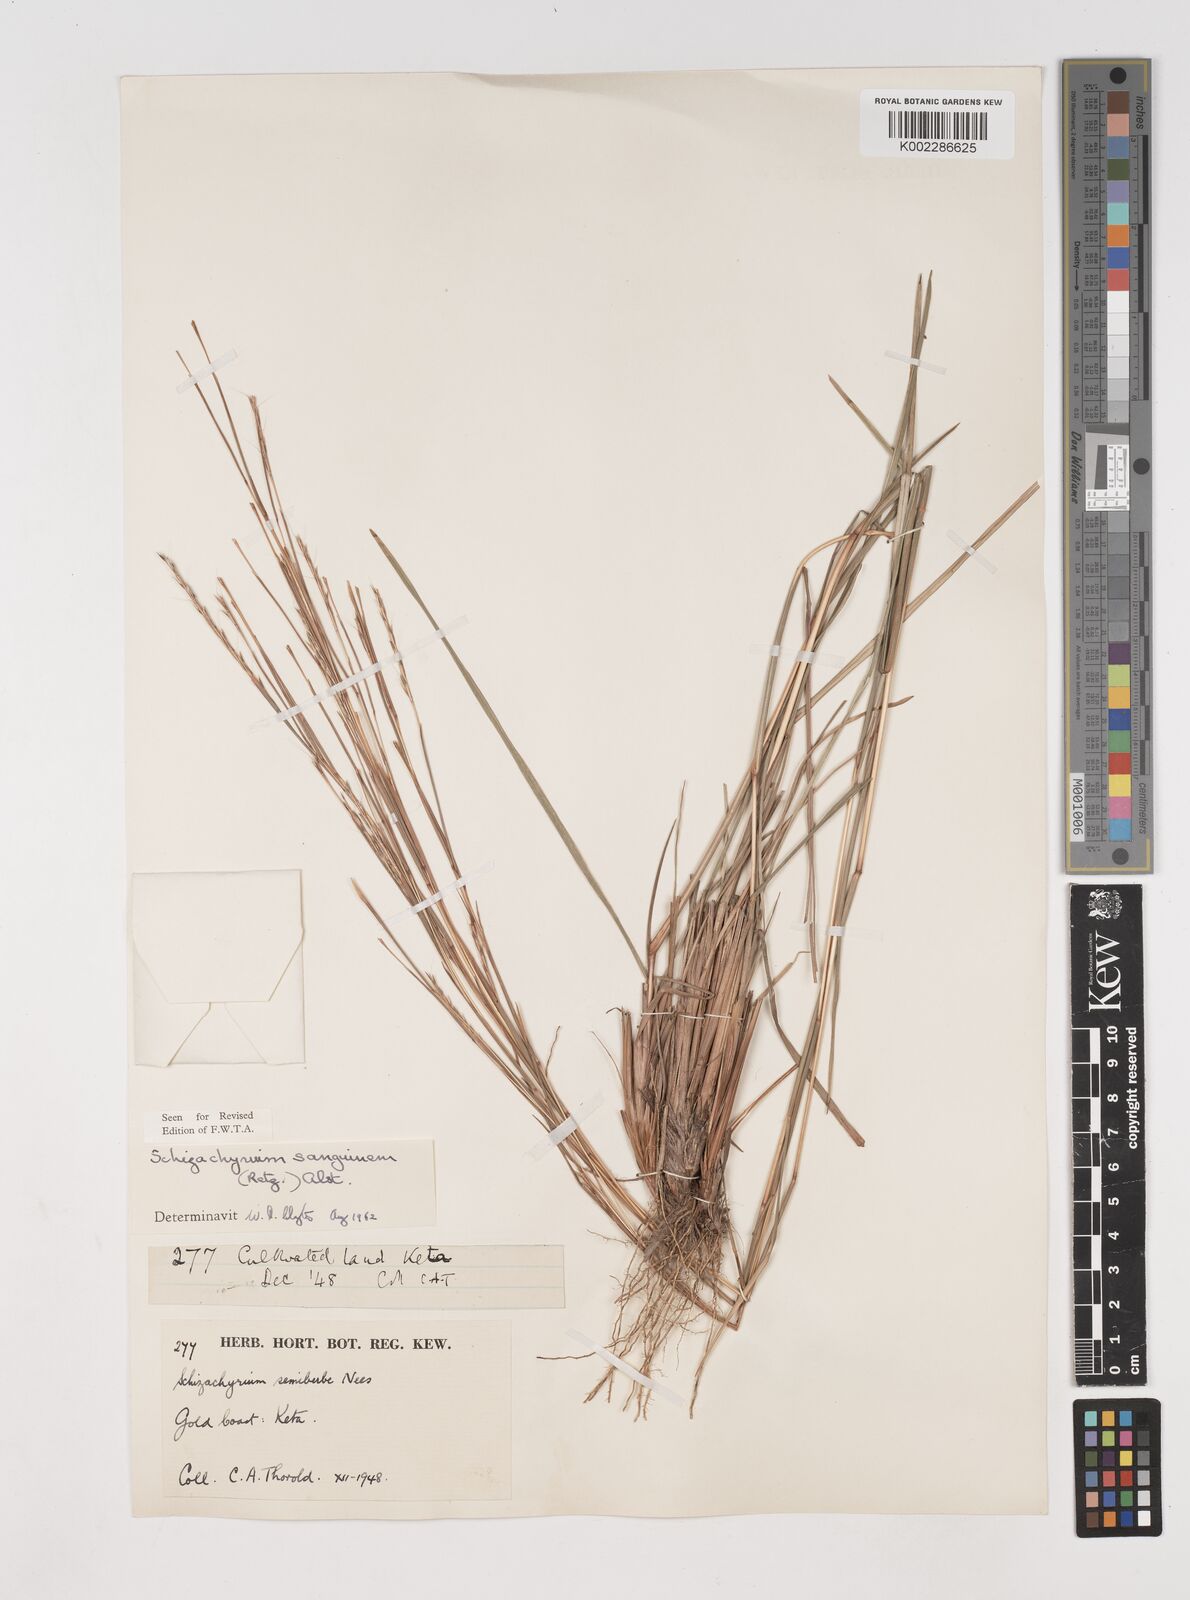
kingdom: Plantae
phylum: Tracheophyta
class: Liliopsida
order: Poales
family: Poaceae
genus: Schizachyrium
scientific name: Schizachyrium sanguineum
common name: Crimson bluestem
